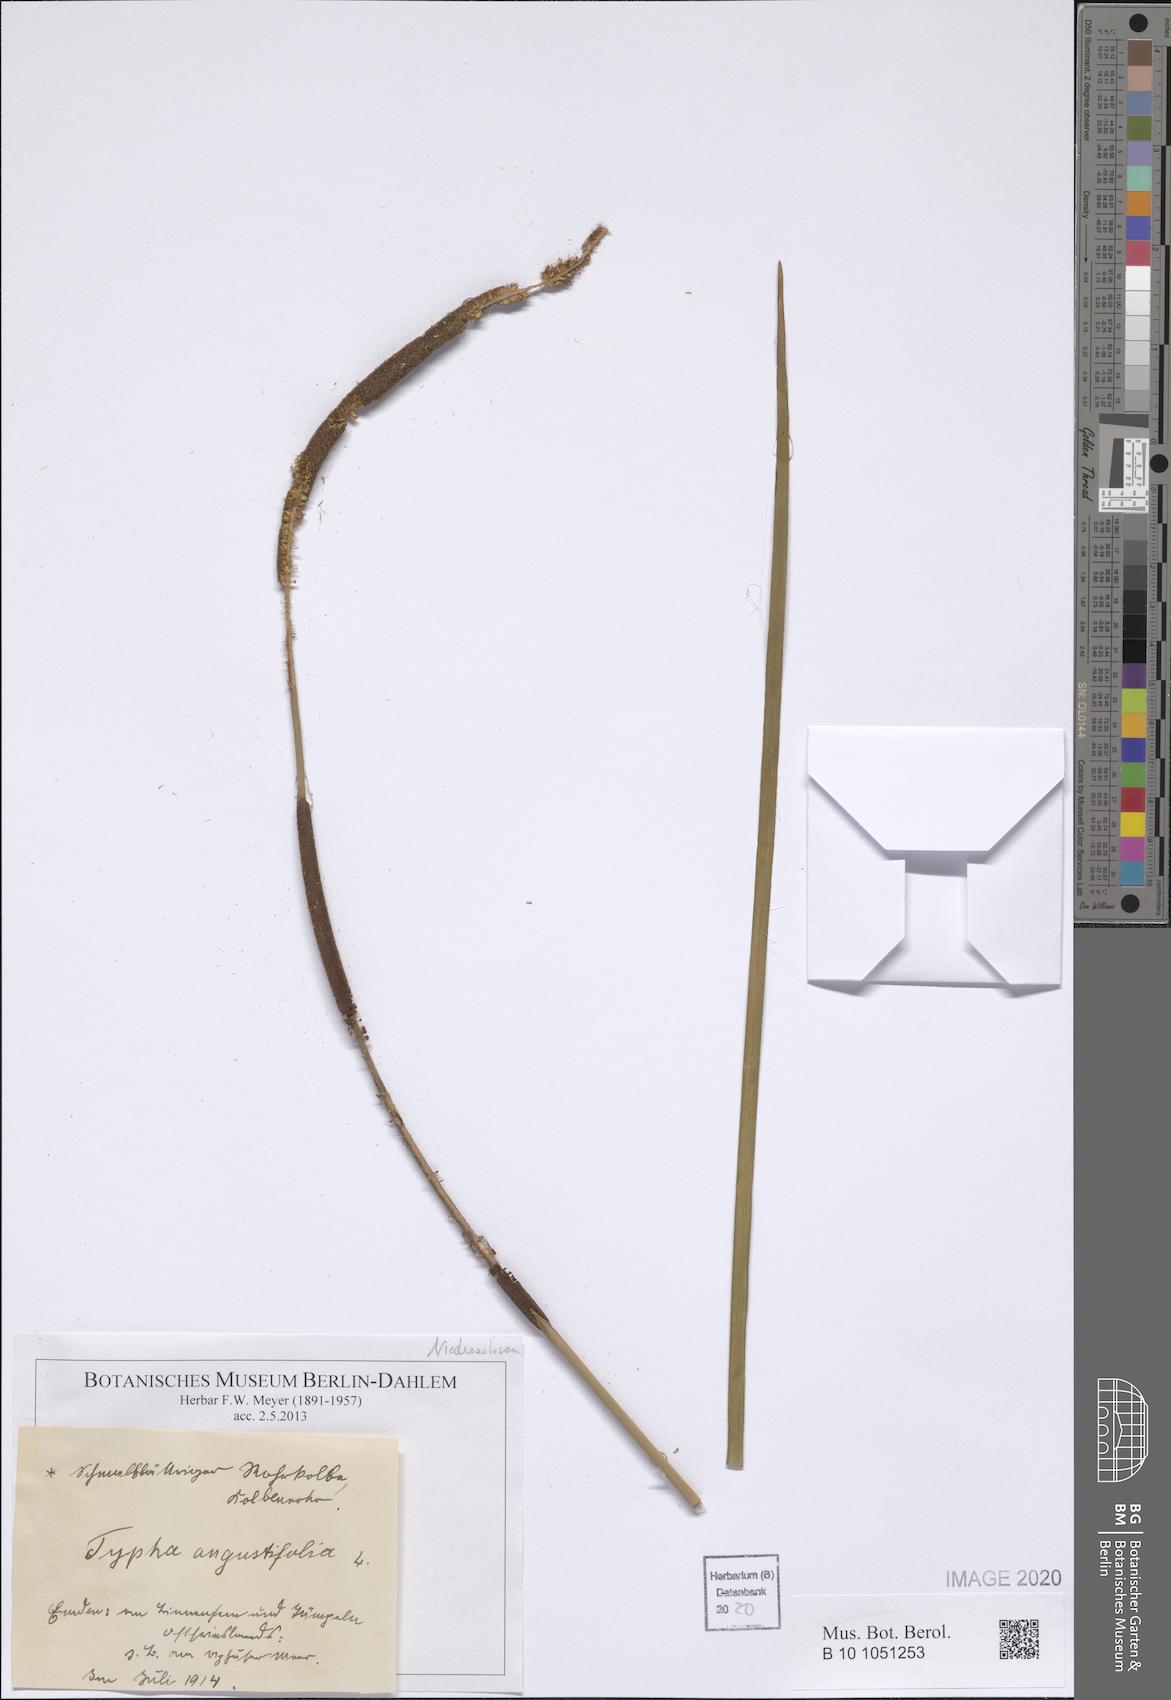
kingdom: Plantae
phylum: Tracheophyta
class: Liliopsida
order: Poales
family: Typhaceae
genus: Typha
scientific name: Typha angustifolia
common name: Lesser bulrush
